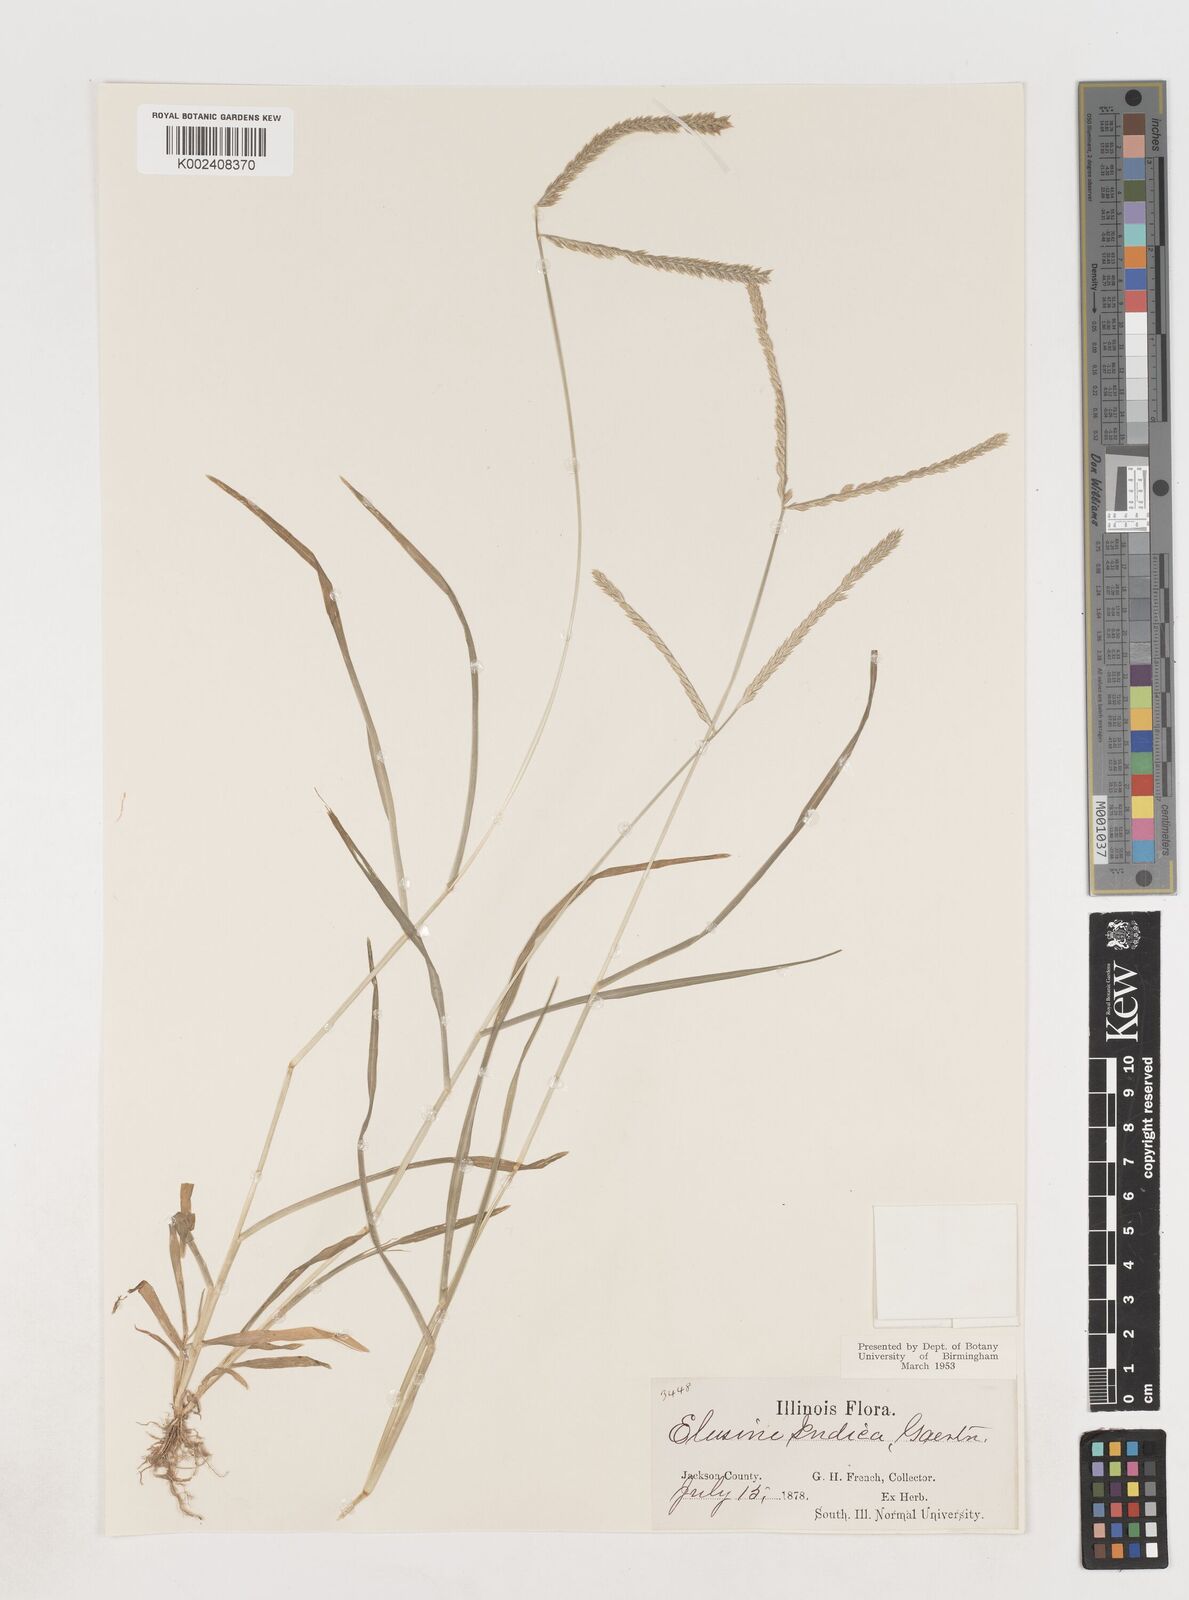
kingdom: Plantae
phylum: Tracheophyta
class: Liliopsida
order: Poales
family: Poaceae
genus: Eleusine
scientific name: Eleusine indica
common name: Yard-grass
